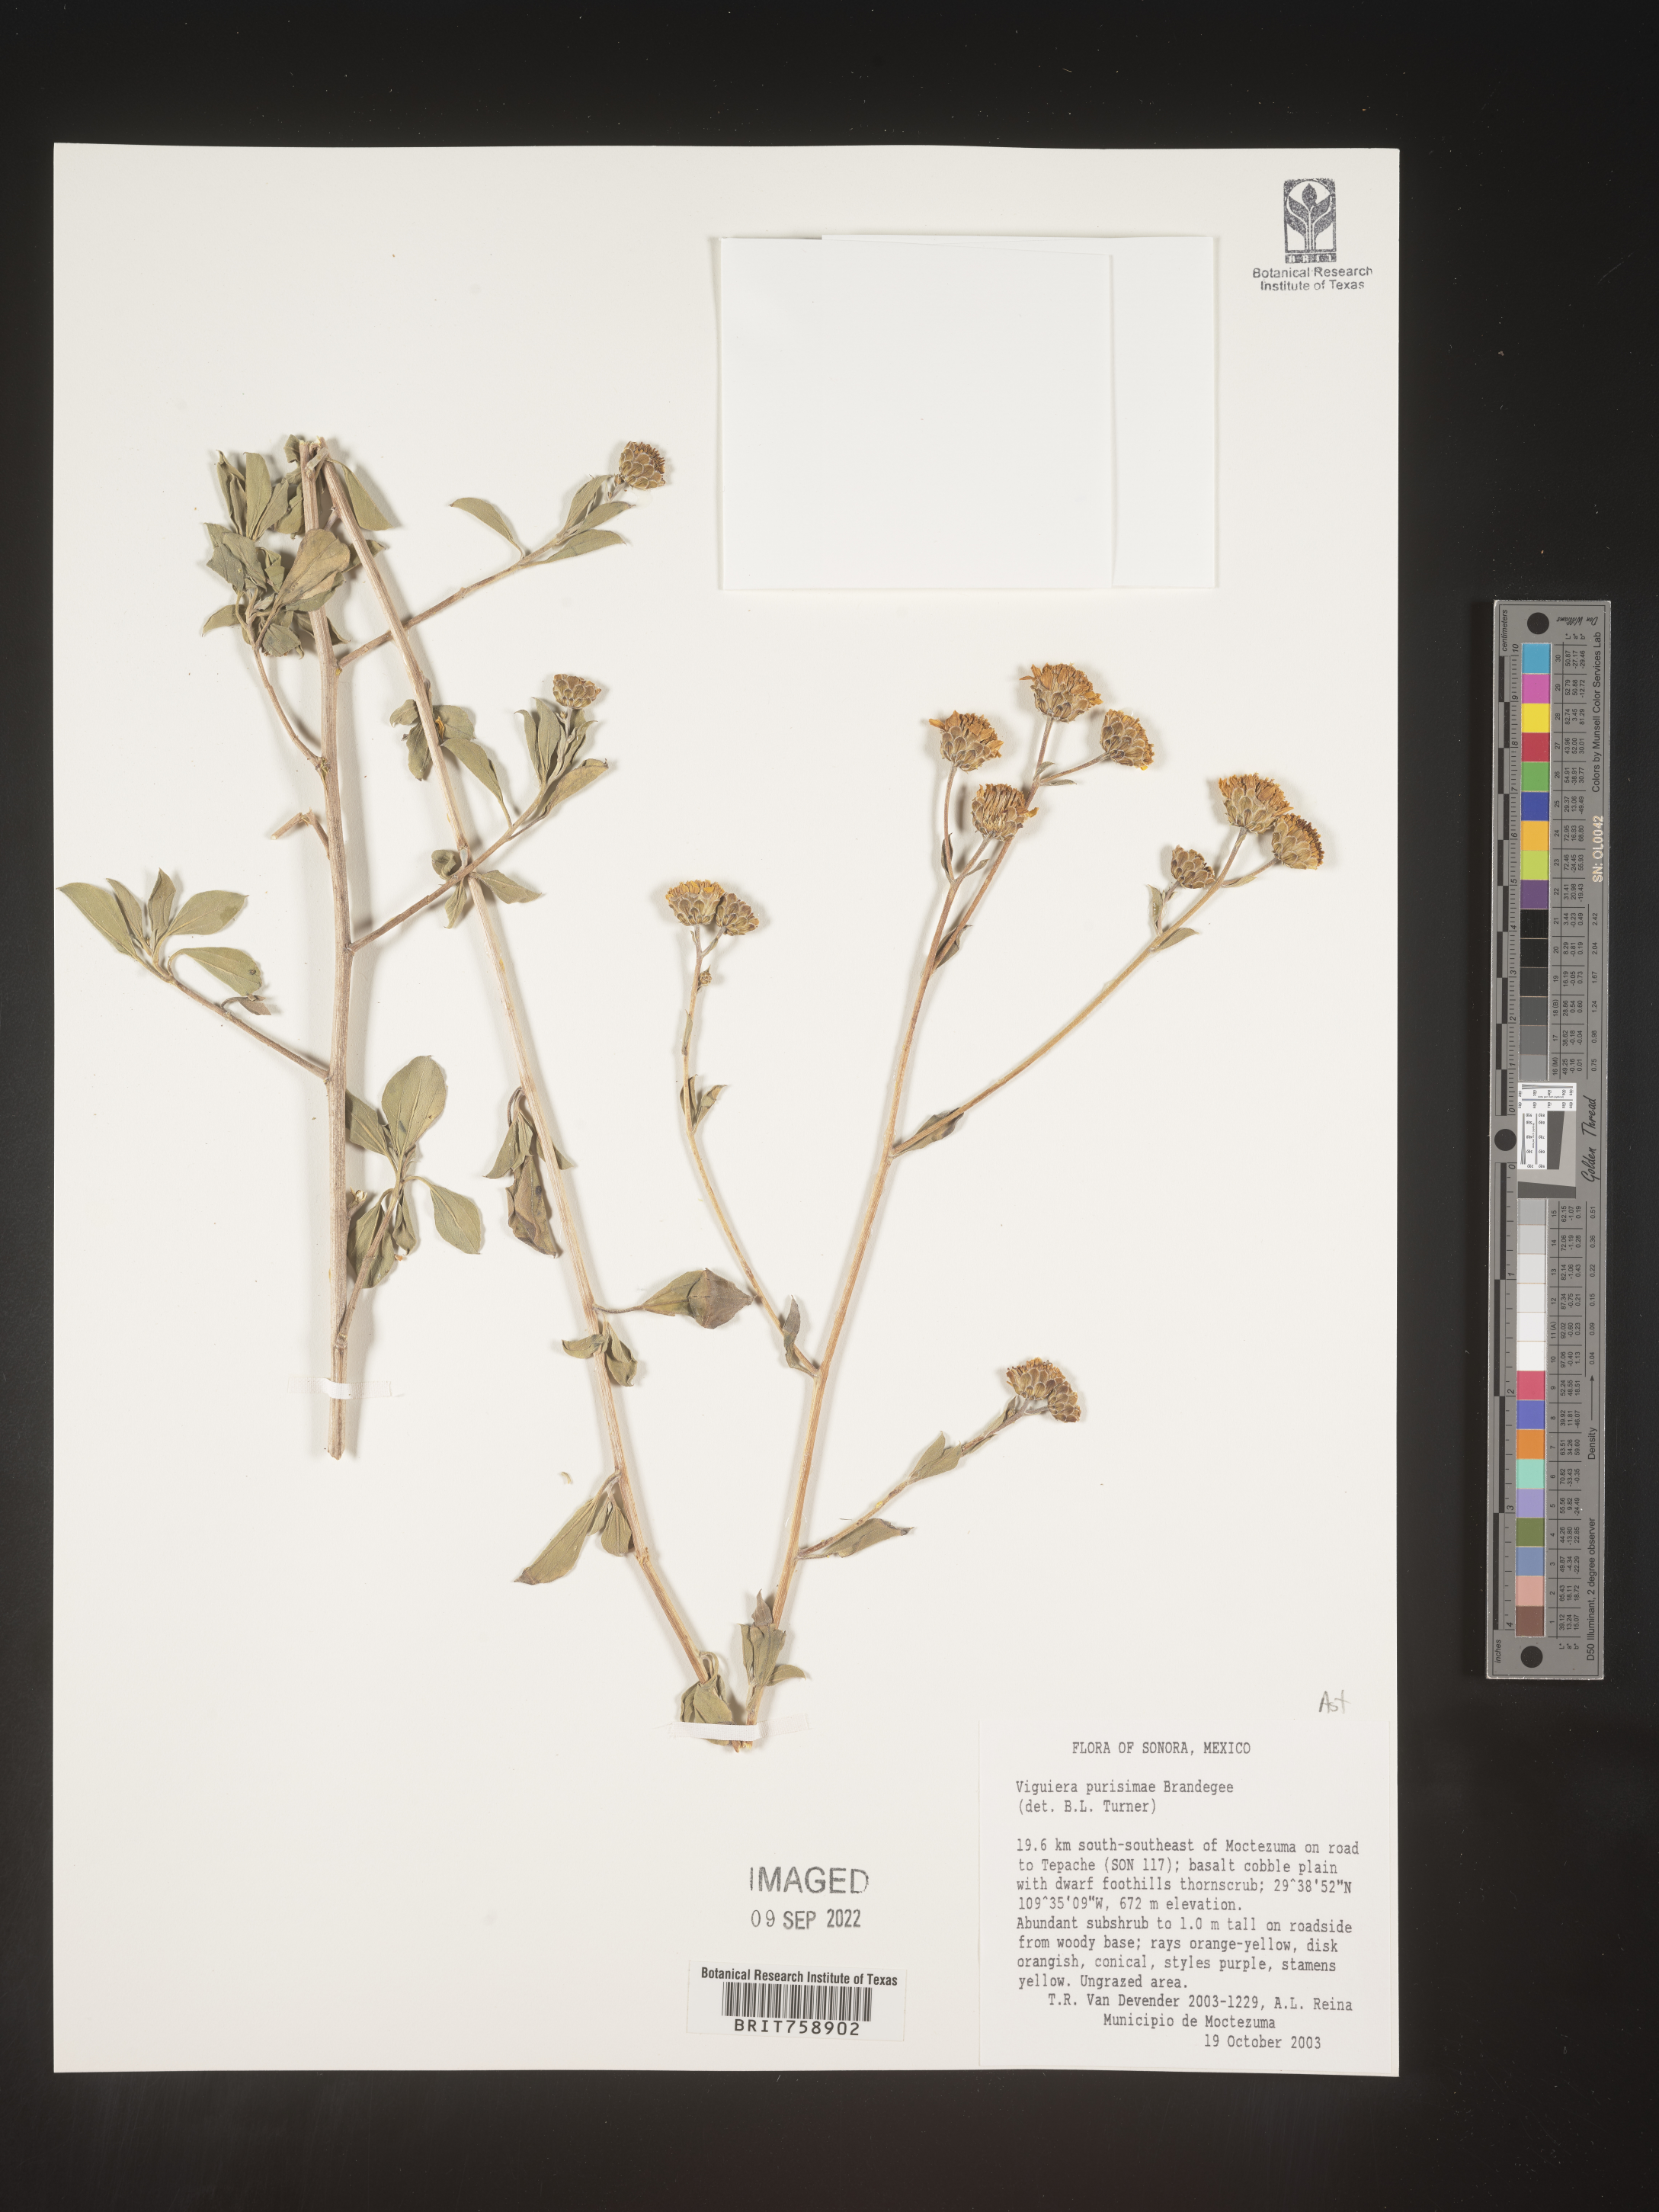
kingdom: Plantae
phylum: Tracheophyta
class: Magnoliopsida
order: Asterales
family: Asteraceae
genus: Viguiera
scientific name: Viguiera
